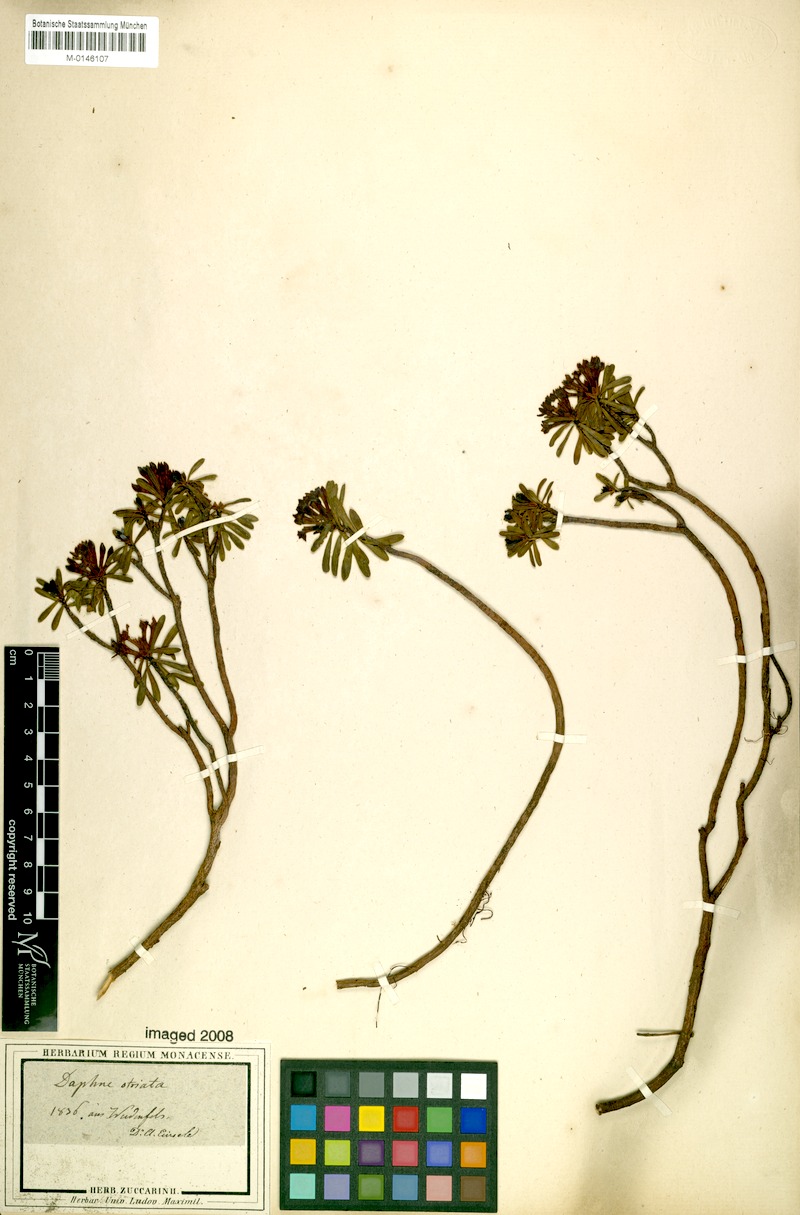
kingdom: Plantae
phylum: Tracheophyta
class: Magnoliopsida
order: Malvales
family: Thymelaeaceae
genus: Daphne
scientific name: Daphne striata
